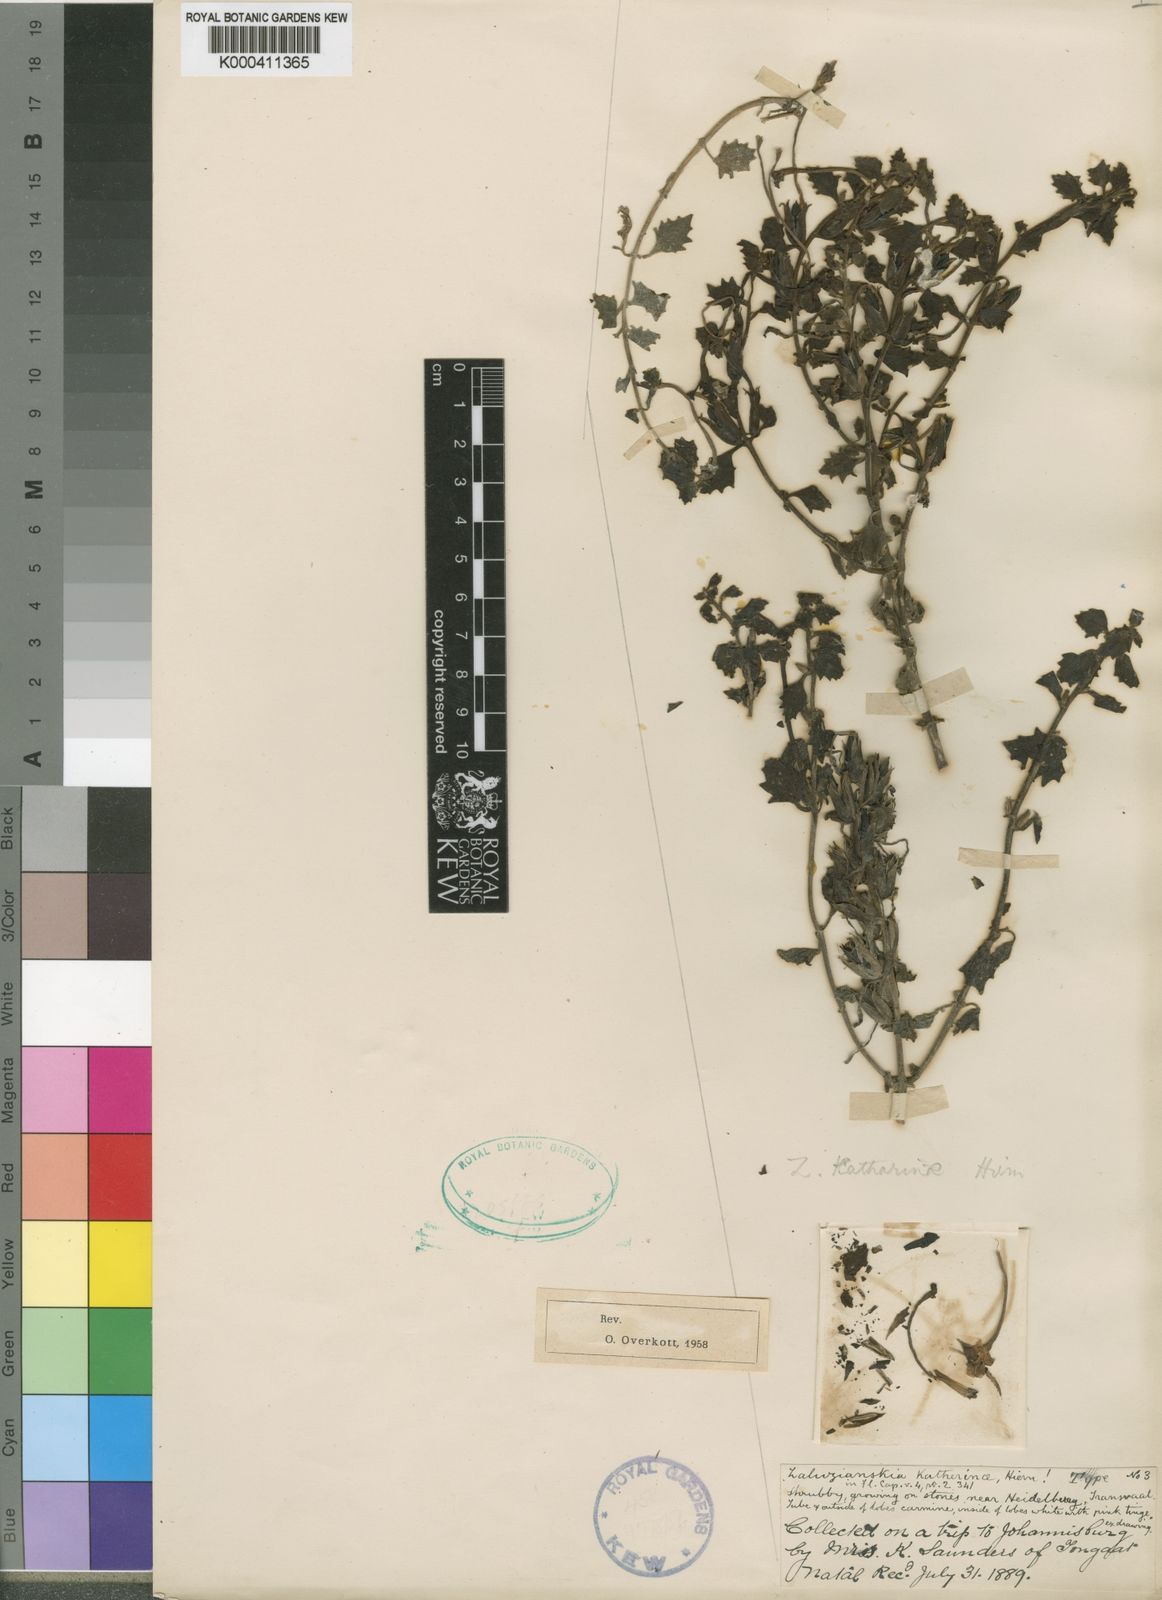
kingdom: Plantae
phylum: Tracheophyta
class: Magnoliopsida
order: Lamiales
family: Scrophulariaceae
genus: Zaluzianskya
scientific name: Zaluzianskya katharinae
